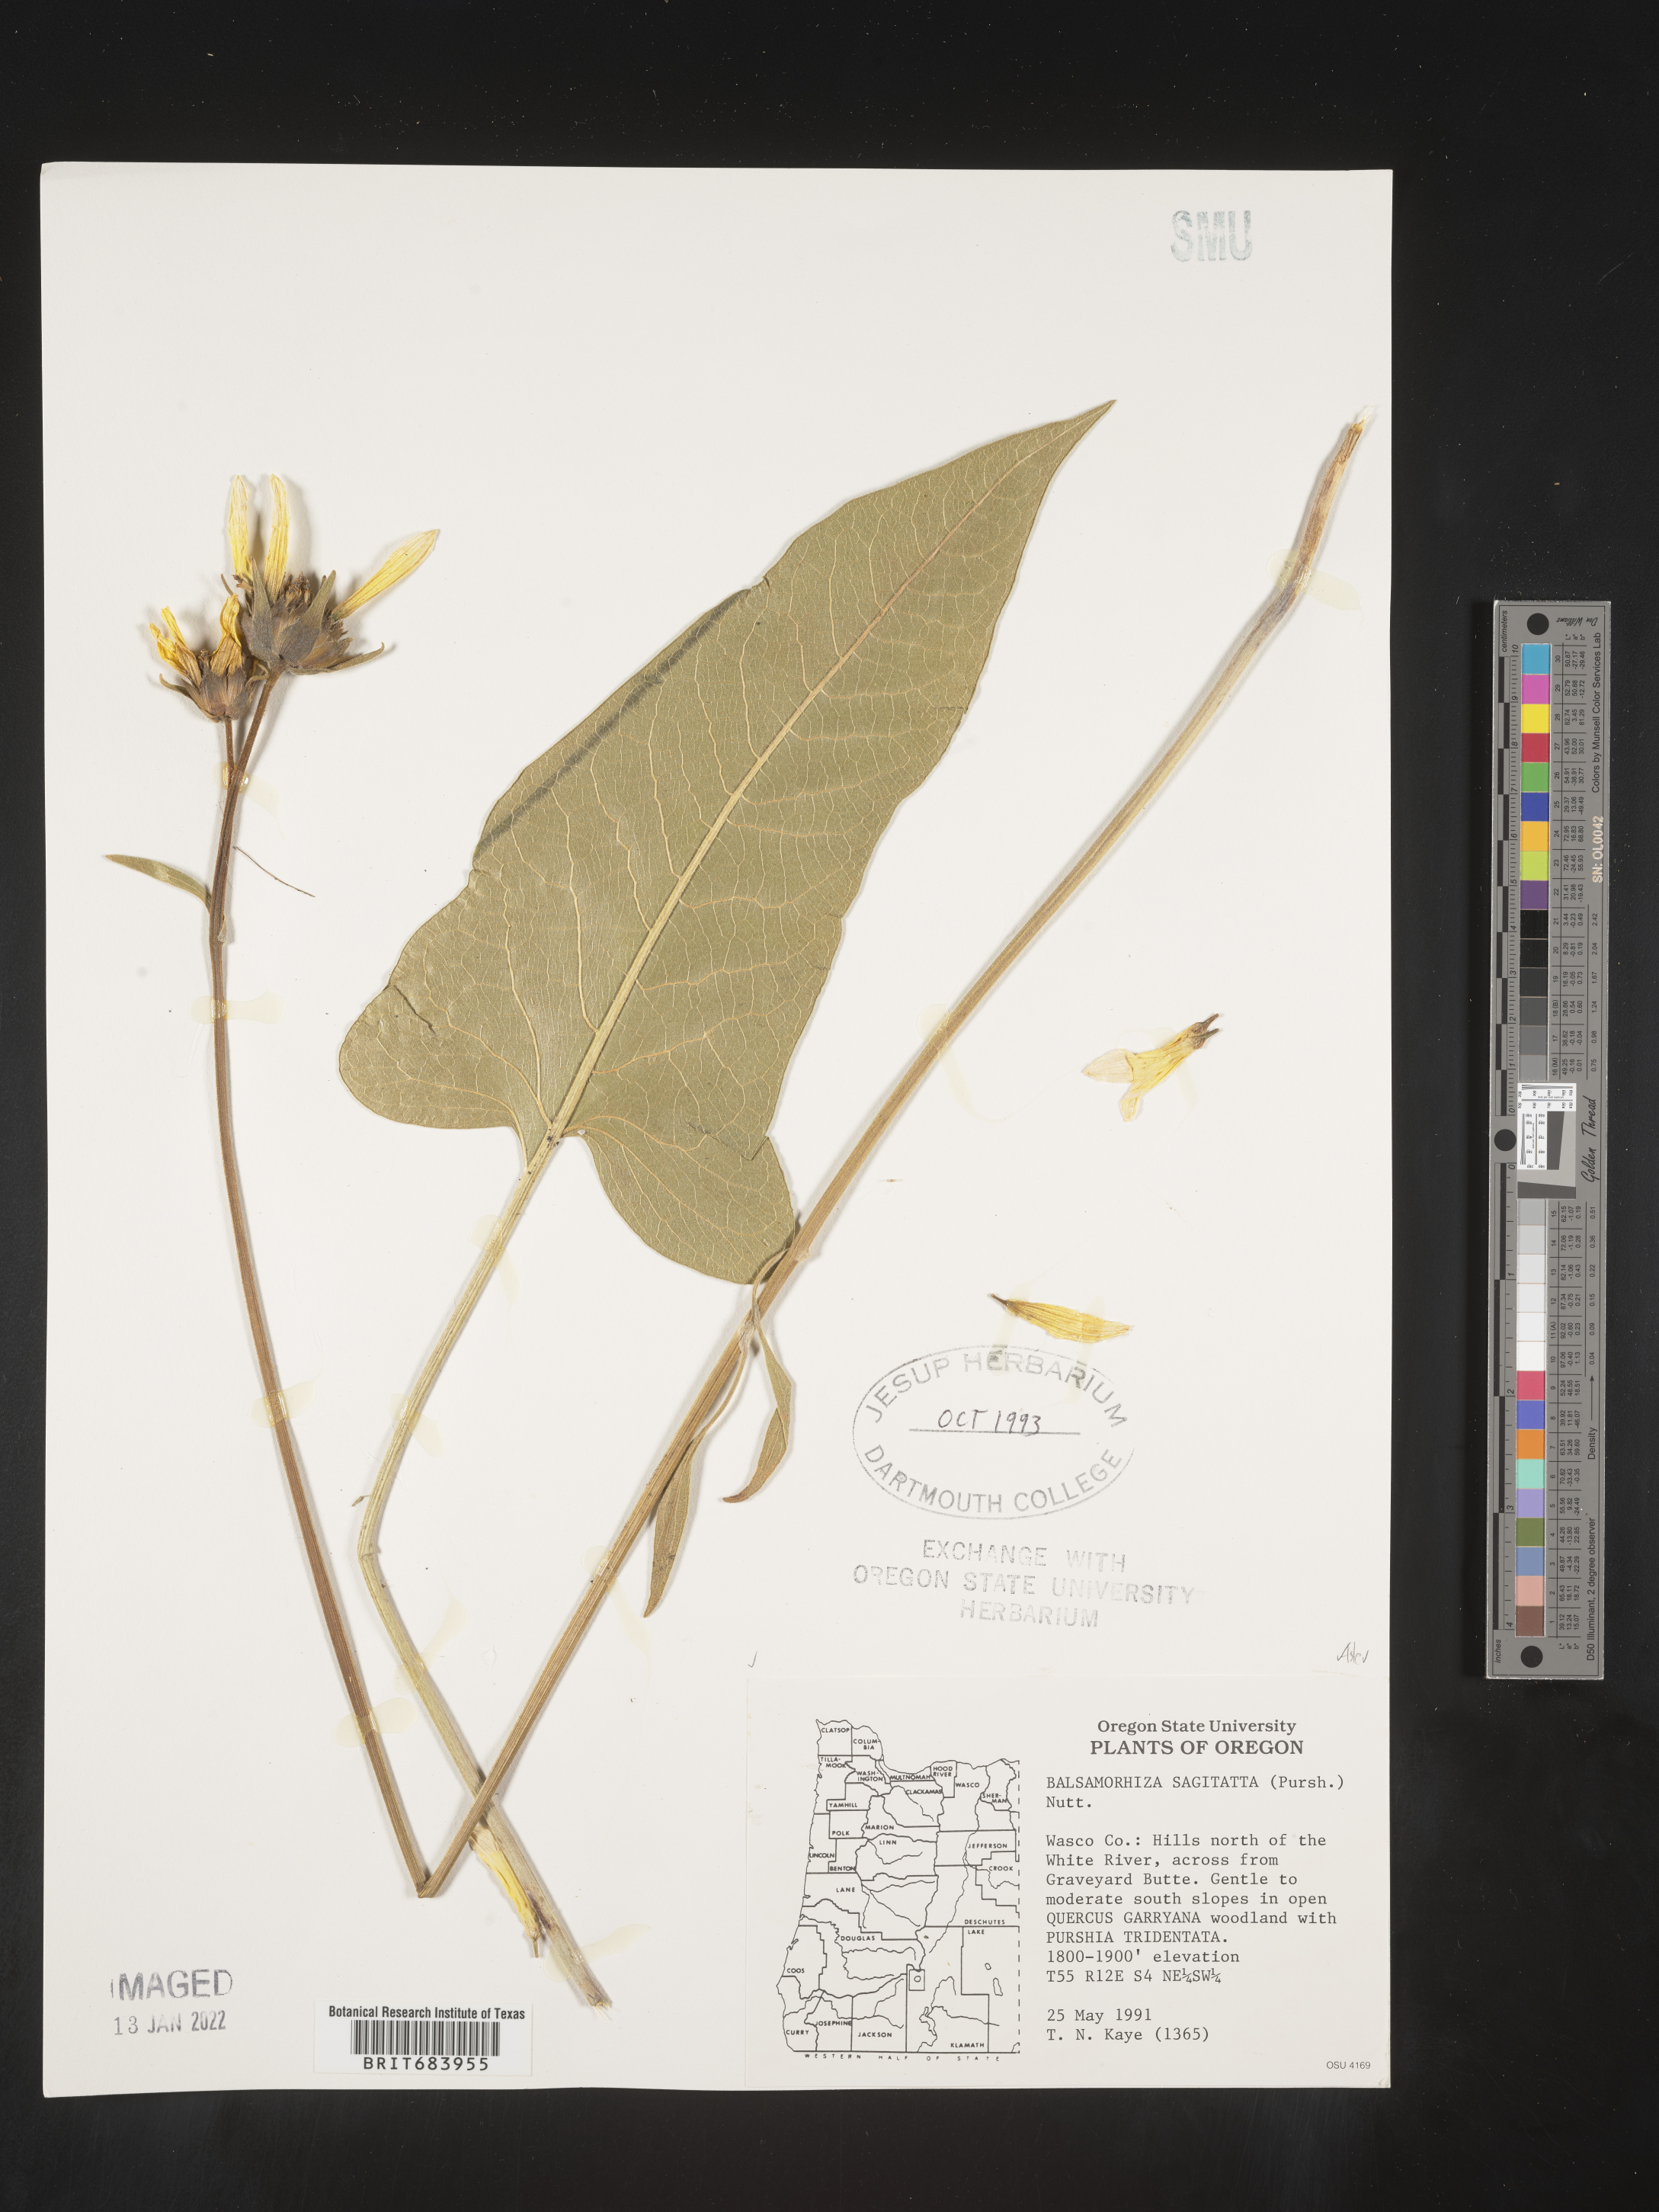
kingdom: Plantae
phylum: Tracheophyta
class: Magnoliopsida
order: Asterales
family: Asteraceae
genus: Wyethia
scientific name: Wyethia sagittata
